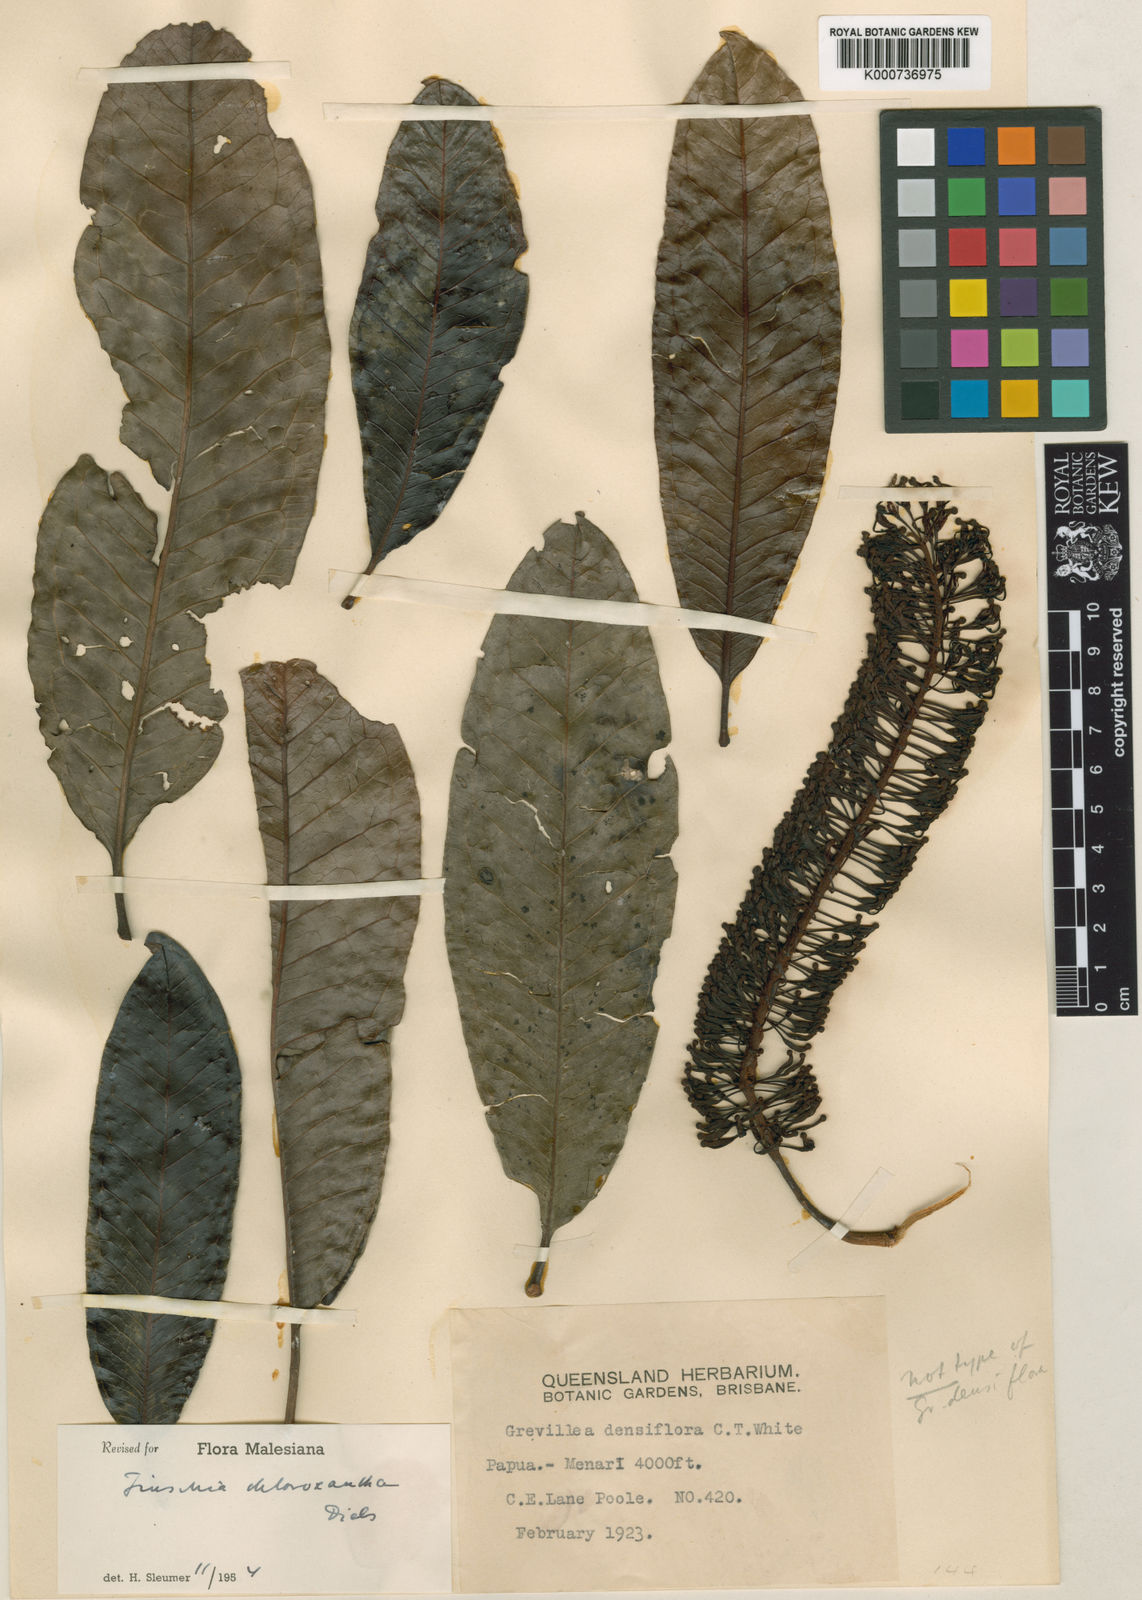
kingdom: Plantae
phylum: Tracheophyta
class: Magnoliopsida
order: Proteales
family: Proteaceae
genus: Finschia
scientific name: Finschia chloroxantha
